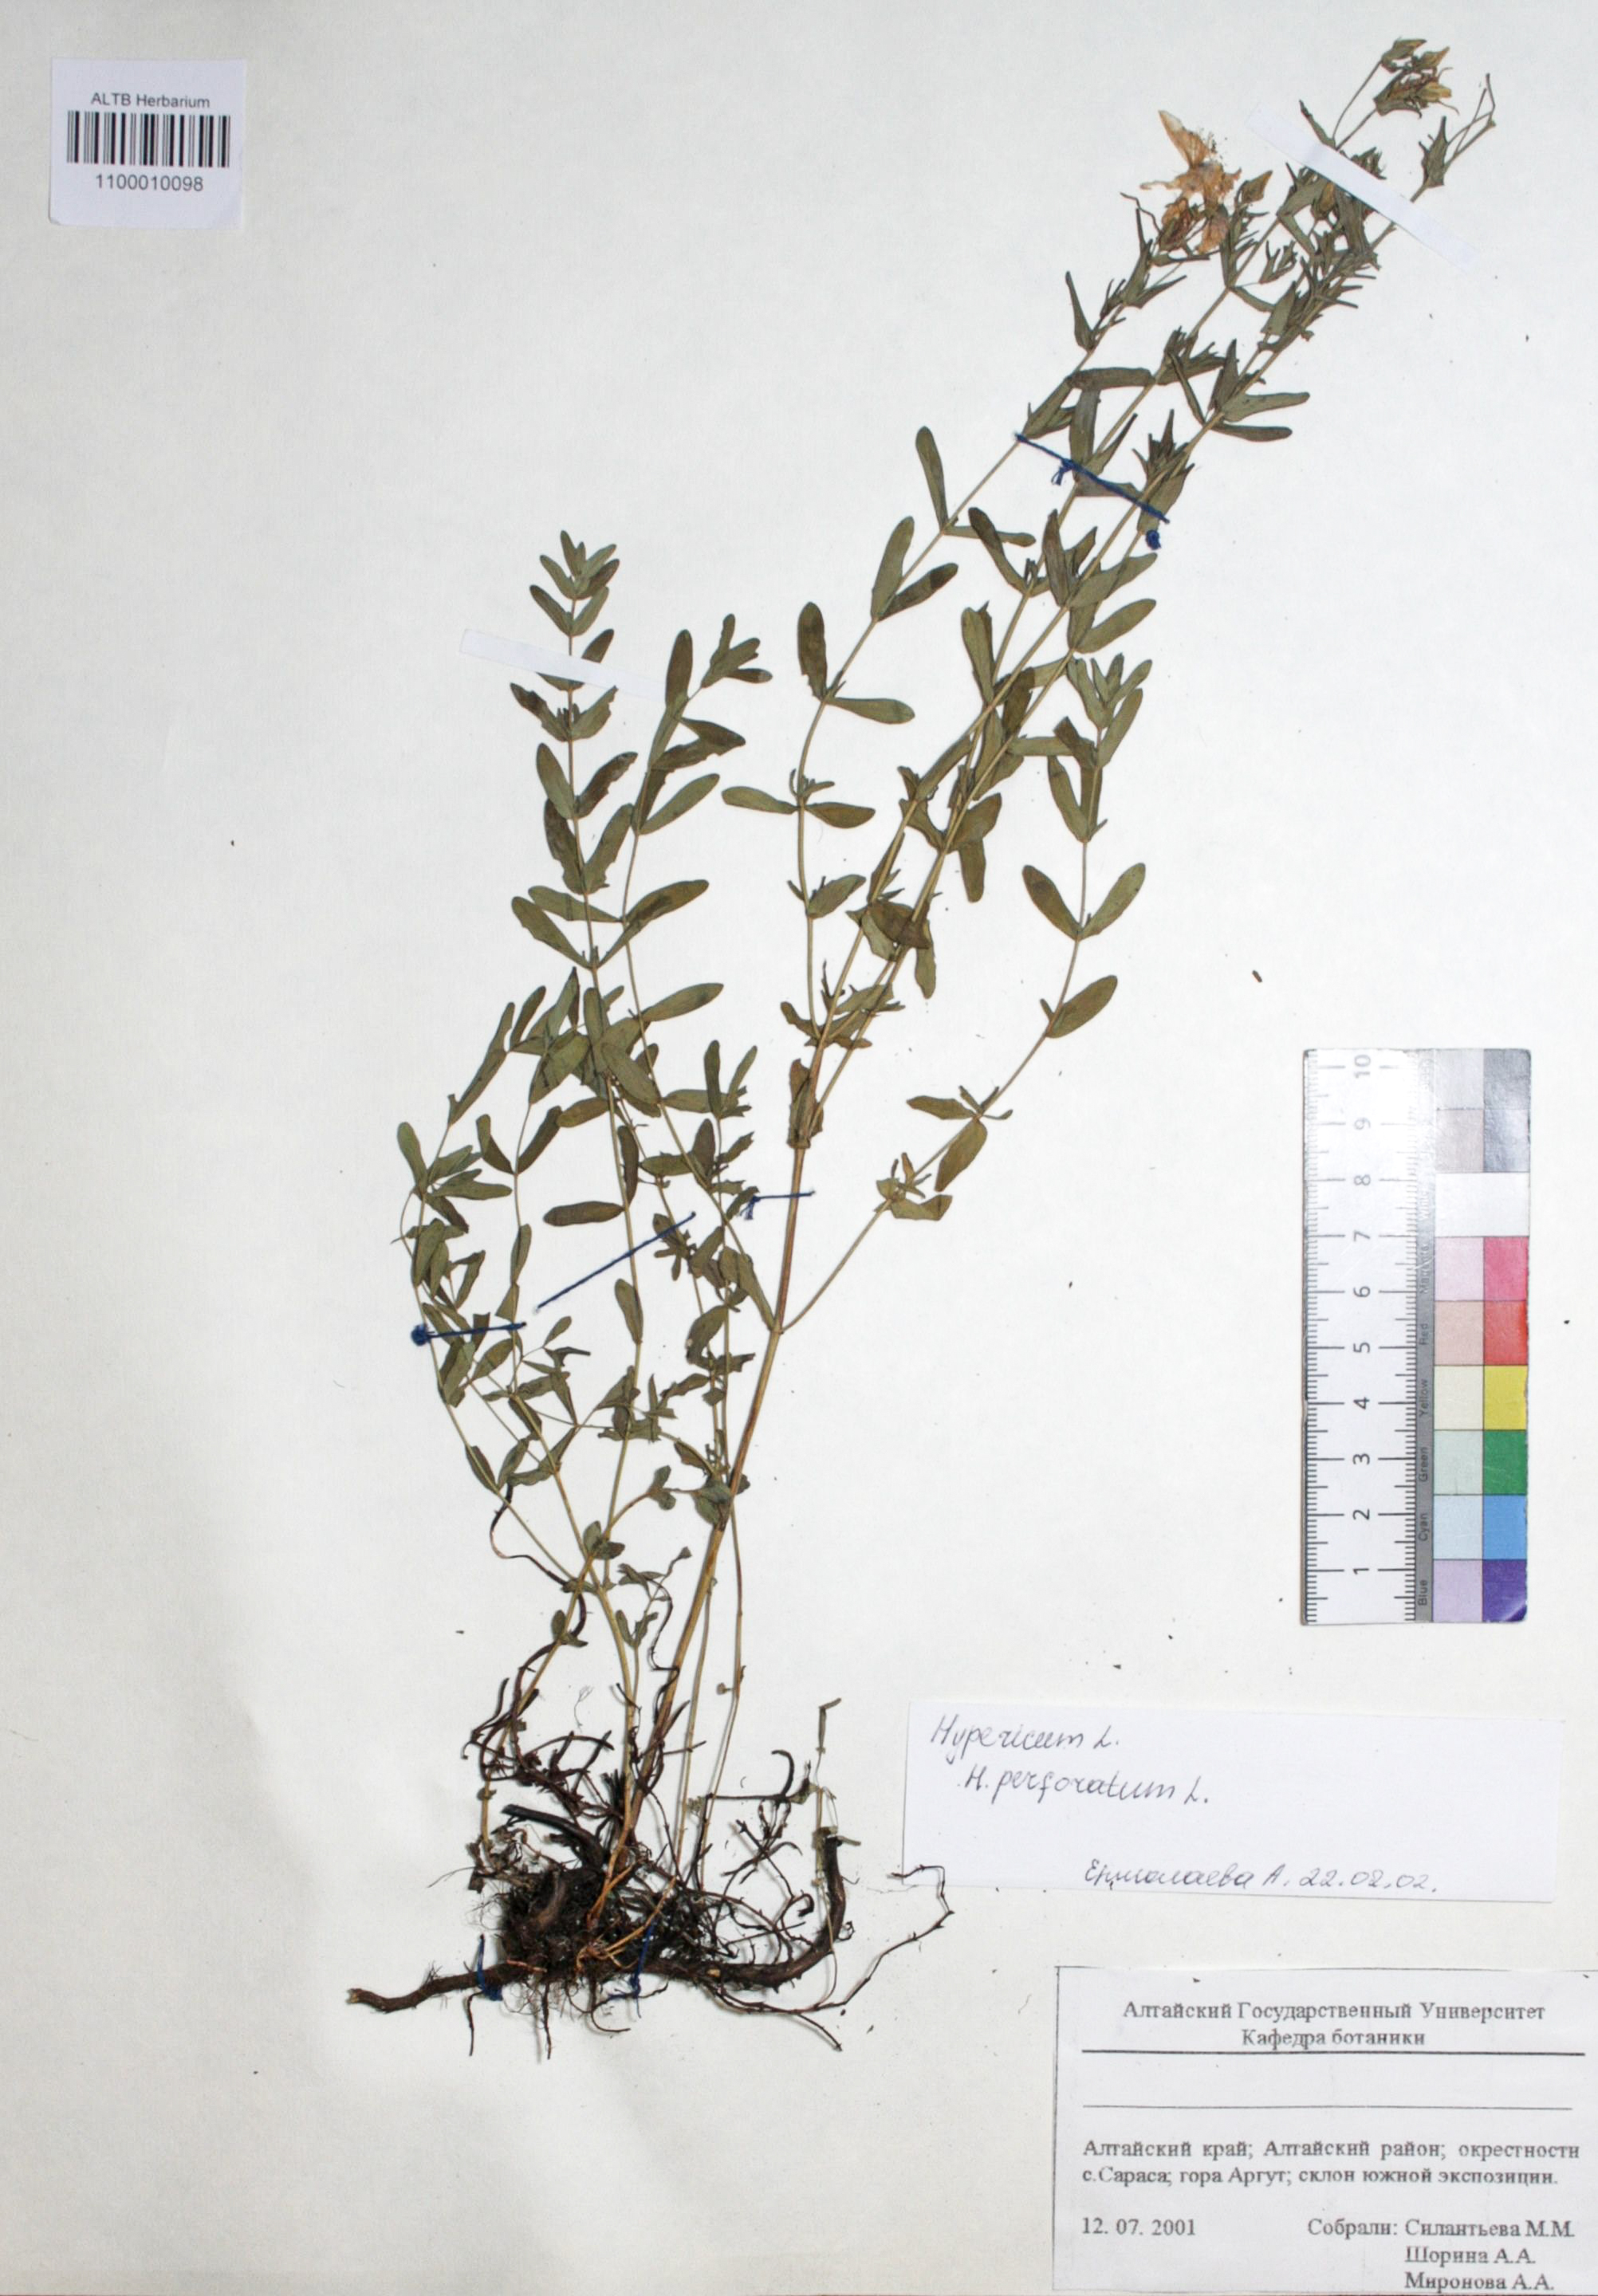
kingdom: Plantae
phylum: Tracheophyta
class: Magnoliopsida
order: Malpighiales
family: Hypericaceae
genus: Hypericum
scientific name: Hypericum perforatum
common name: Common st. johnswort
